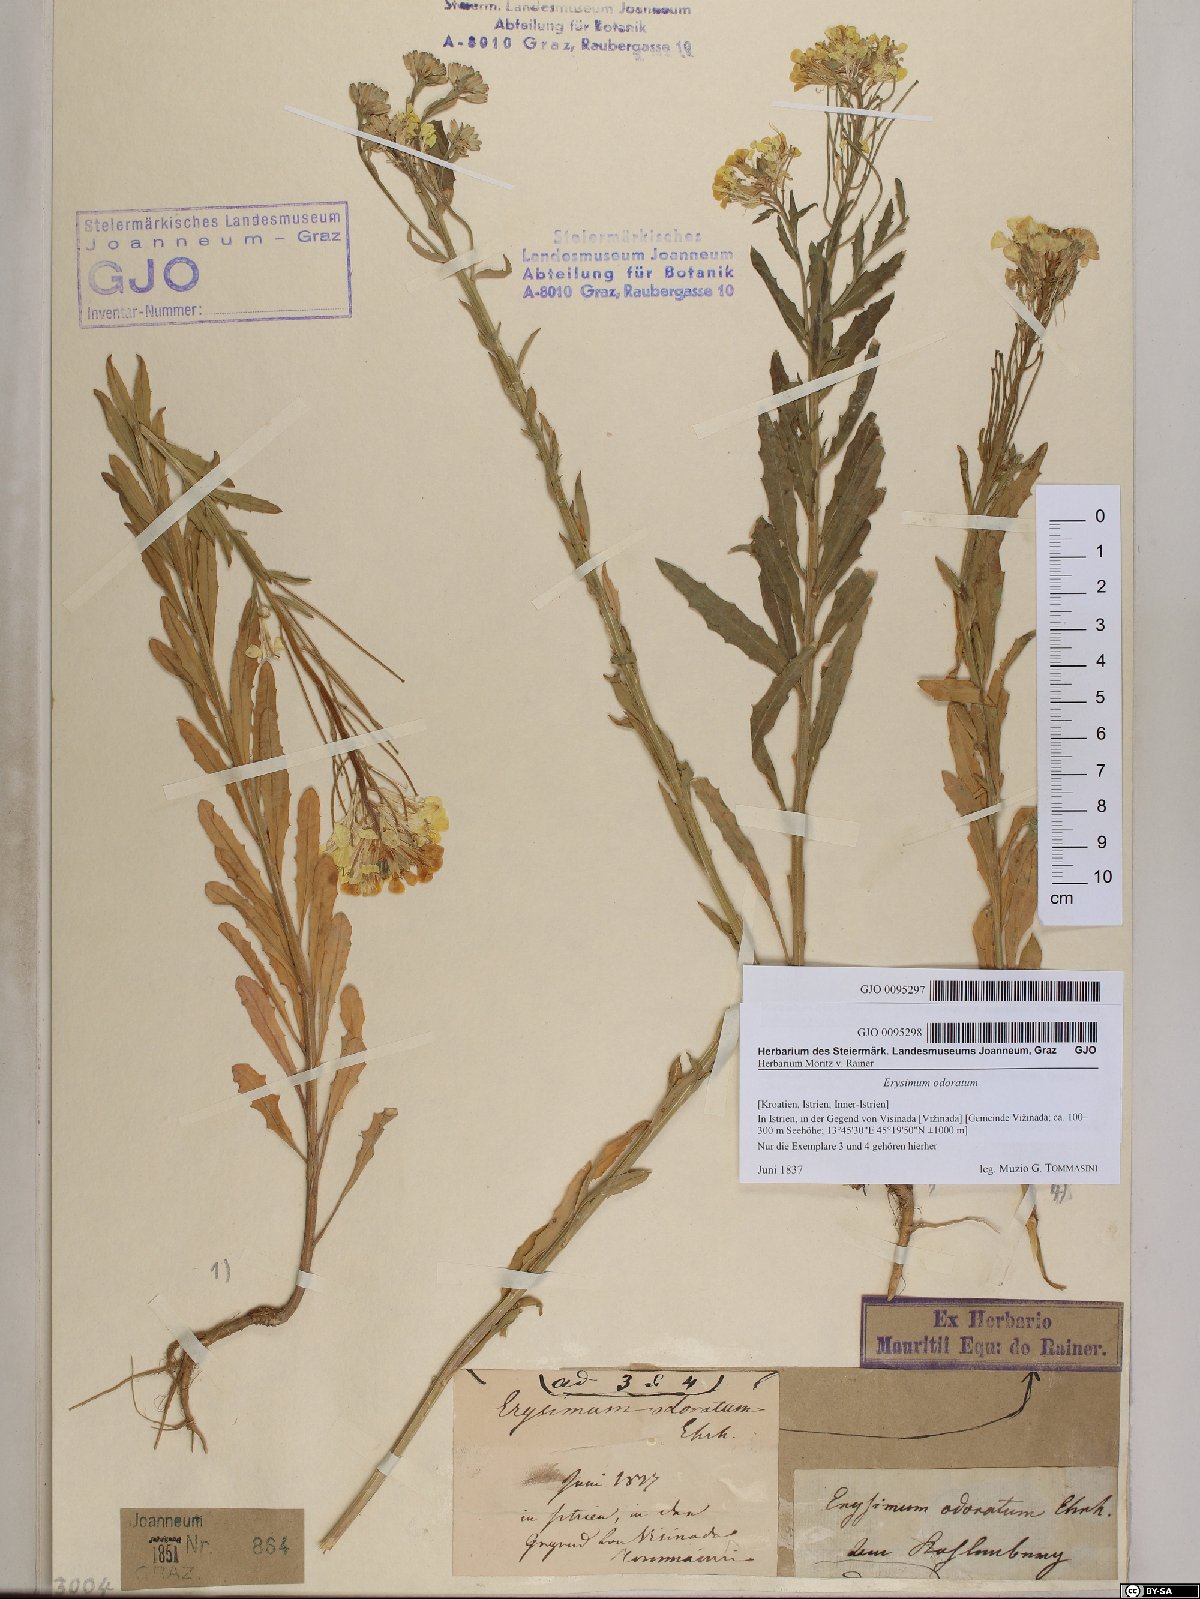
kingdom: Plantae
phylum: Tracheophyta
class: Magnoliopsida
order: Brassicales
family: Brassicaceae
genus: Erysimum
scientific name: Erysimum odoratum
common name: Smelly wallflower
